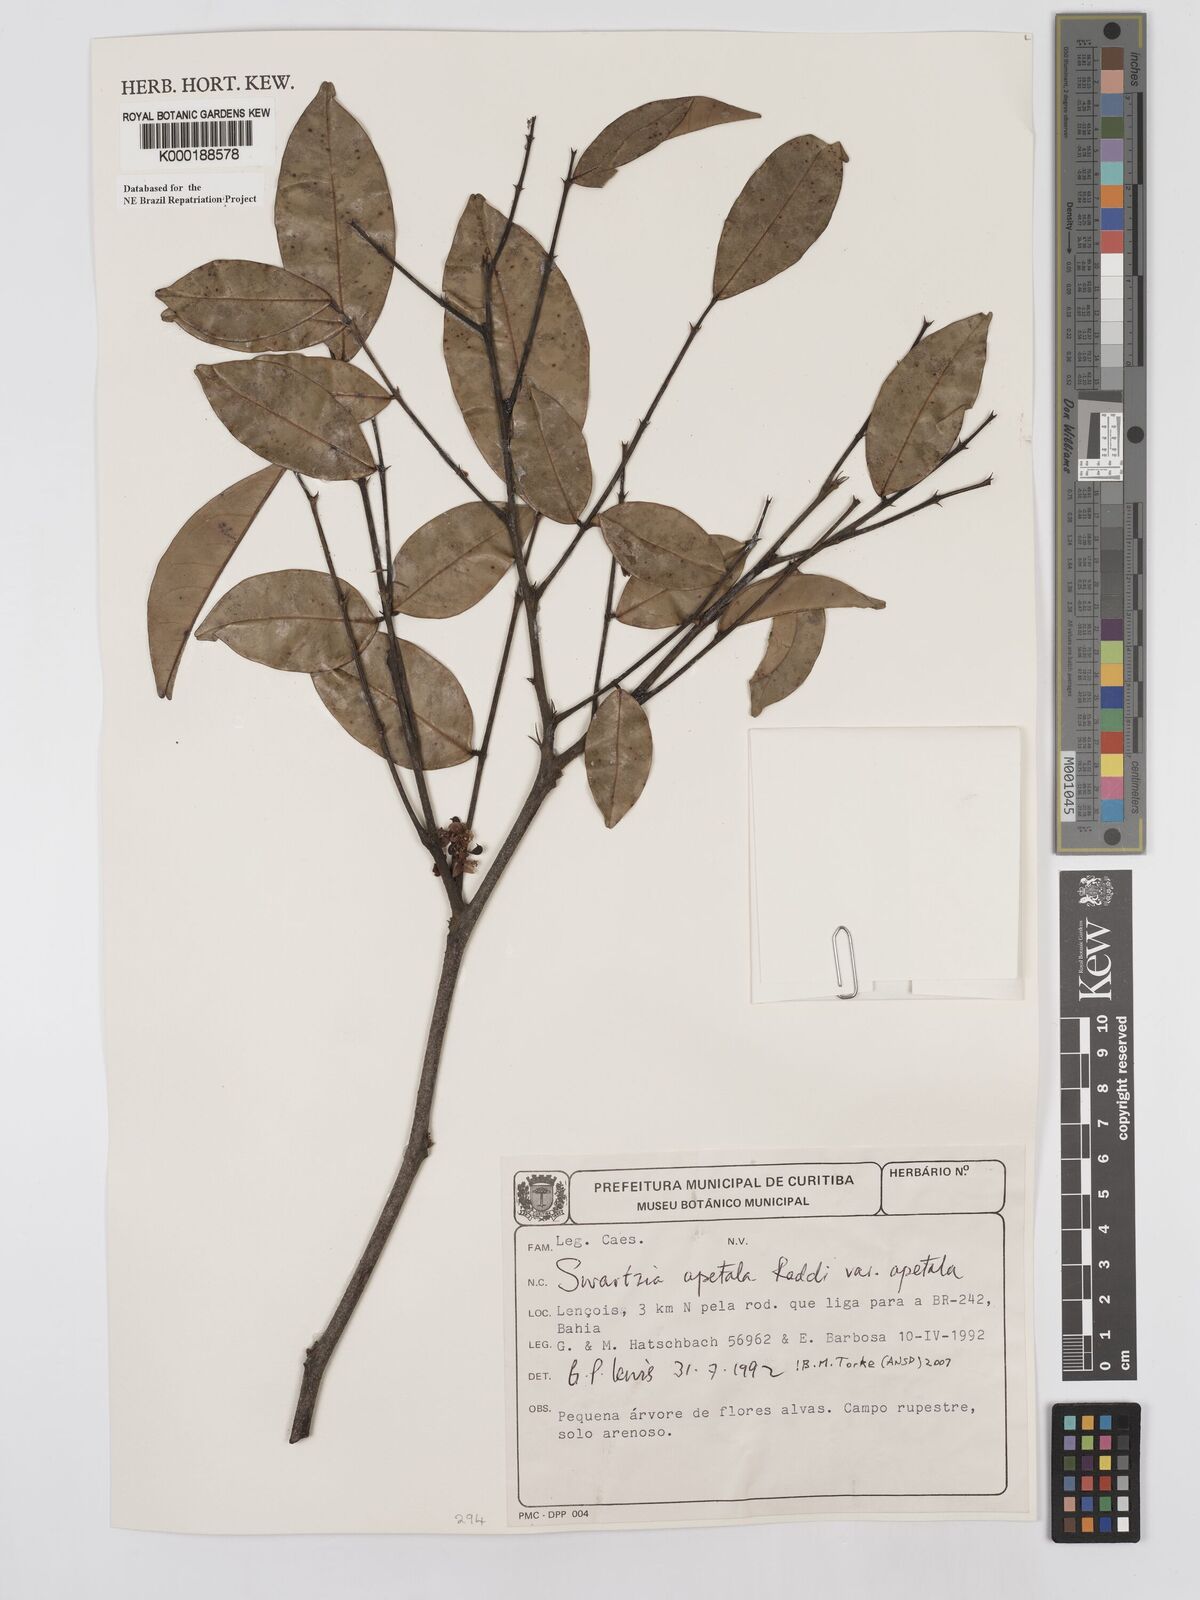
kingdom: Plantae
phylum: Tracheophyta
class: Magnoliopsida
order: Fabales
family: Fabaceae
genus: Swartzia
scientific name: Swartzia apetala
